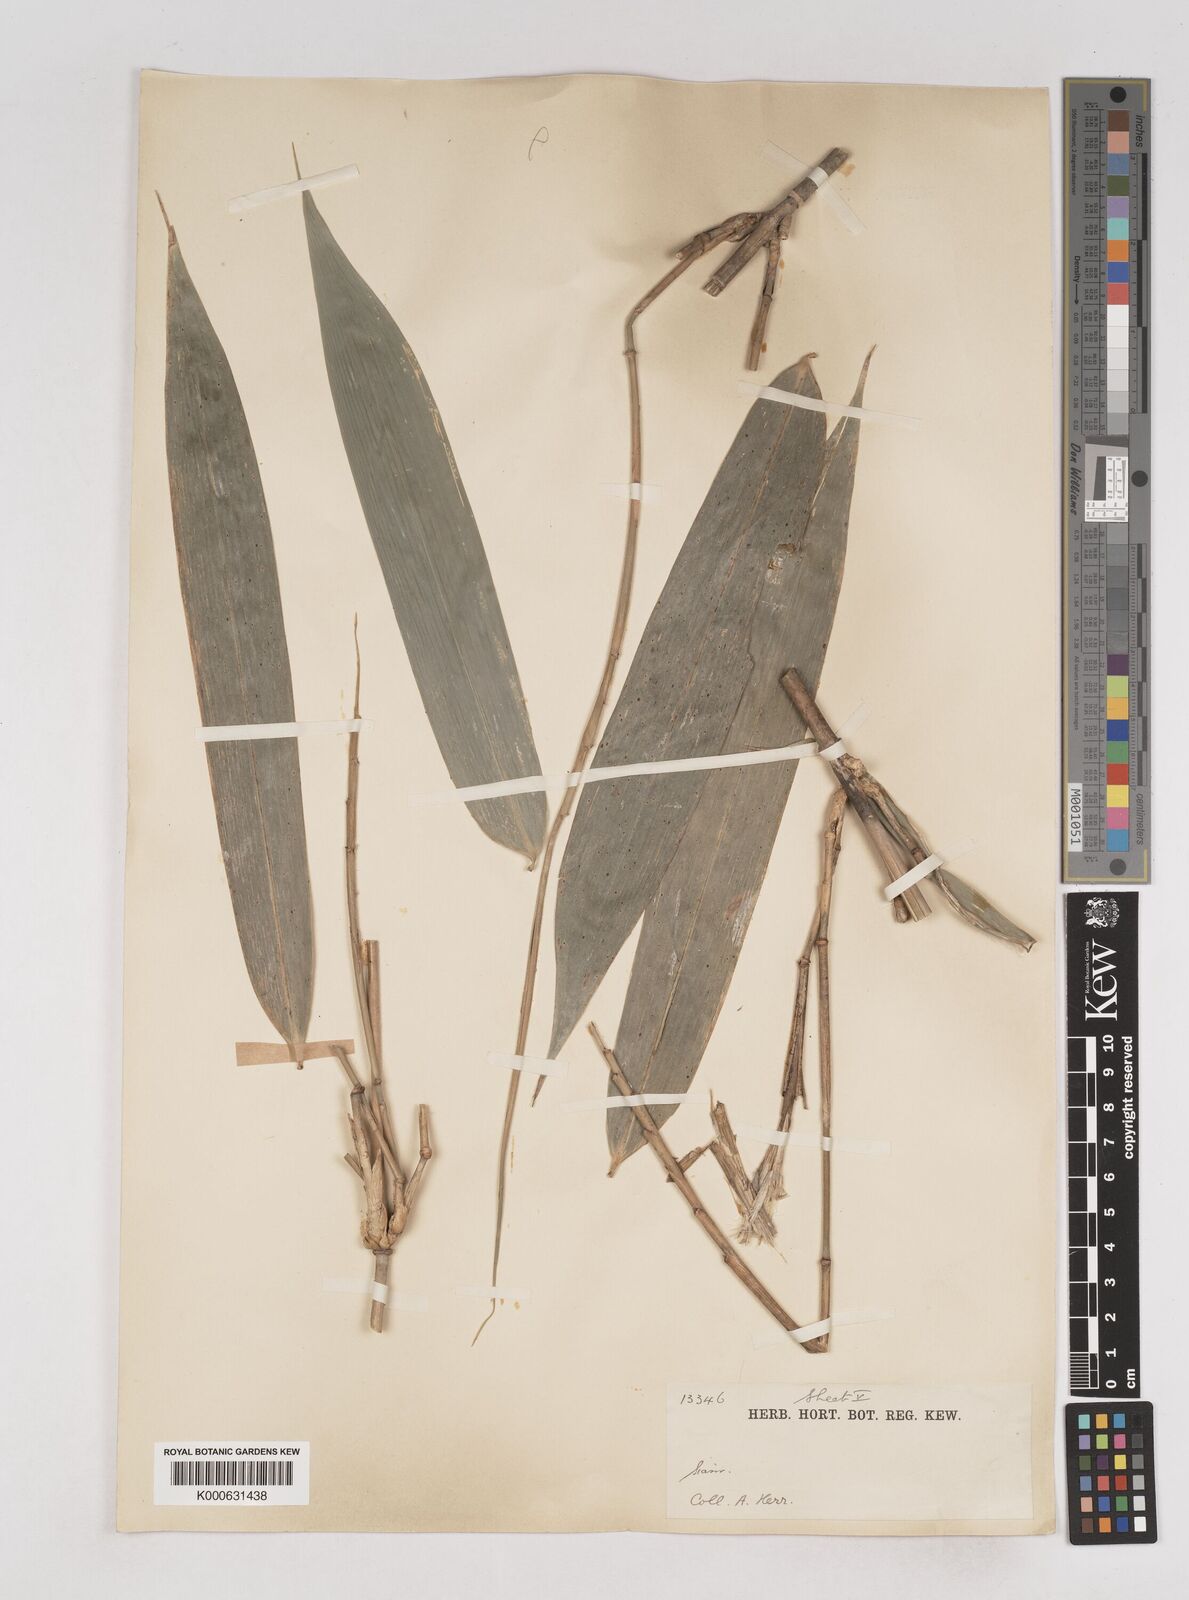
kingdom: Plantae
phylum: Tracheophyta
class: Liliopsida
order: Poales
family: Poaceae
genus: Schizostachyum
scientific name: Schizostachyum grande
